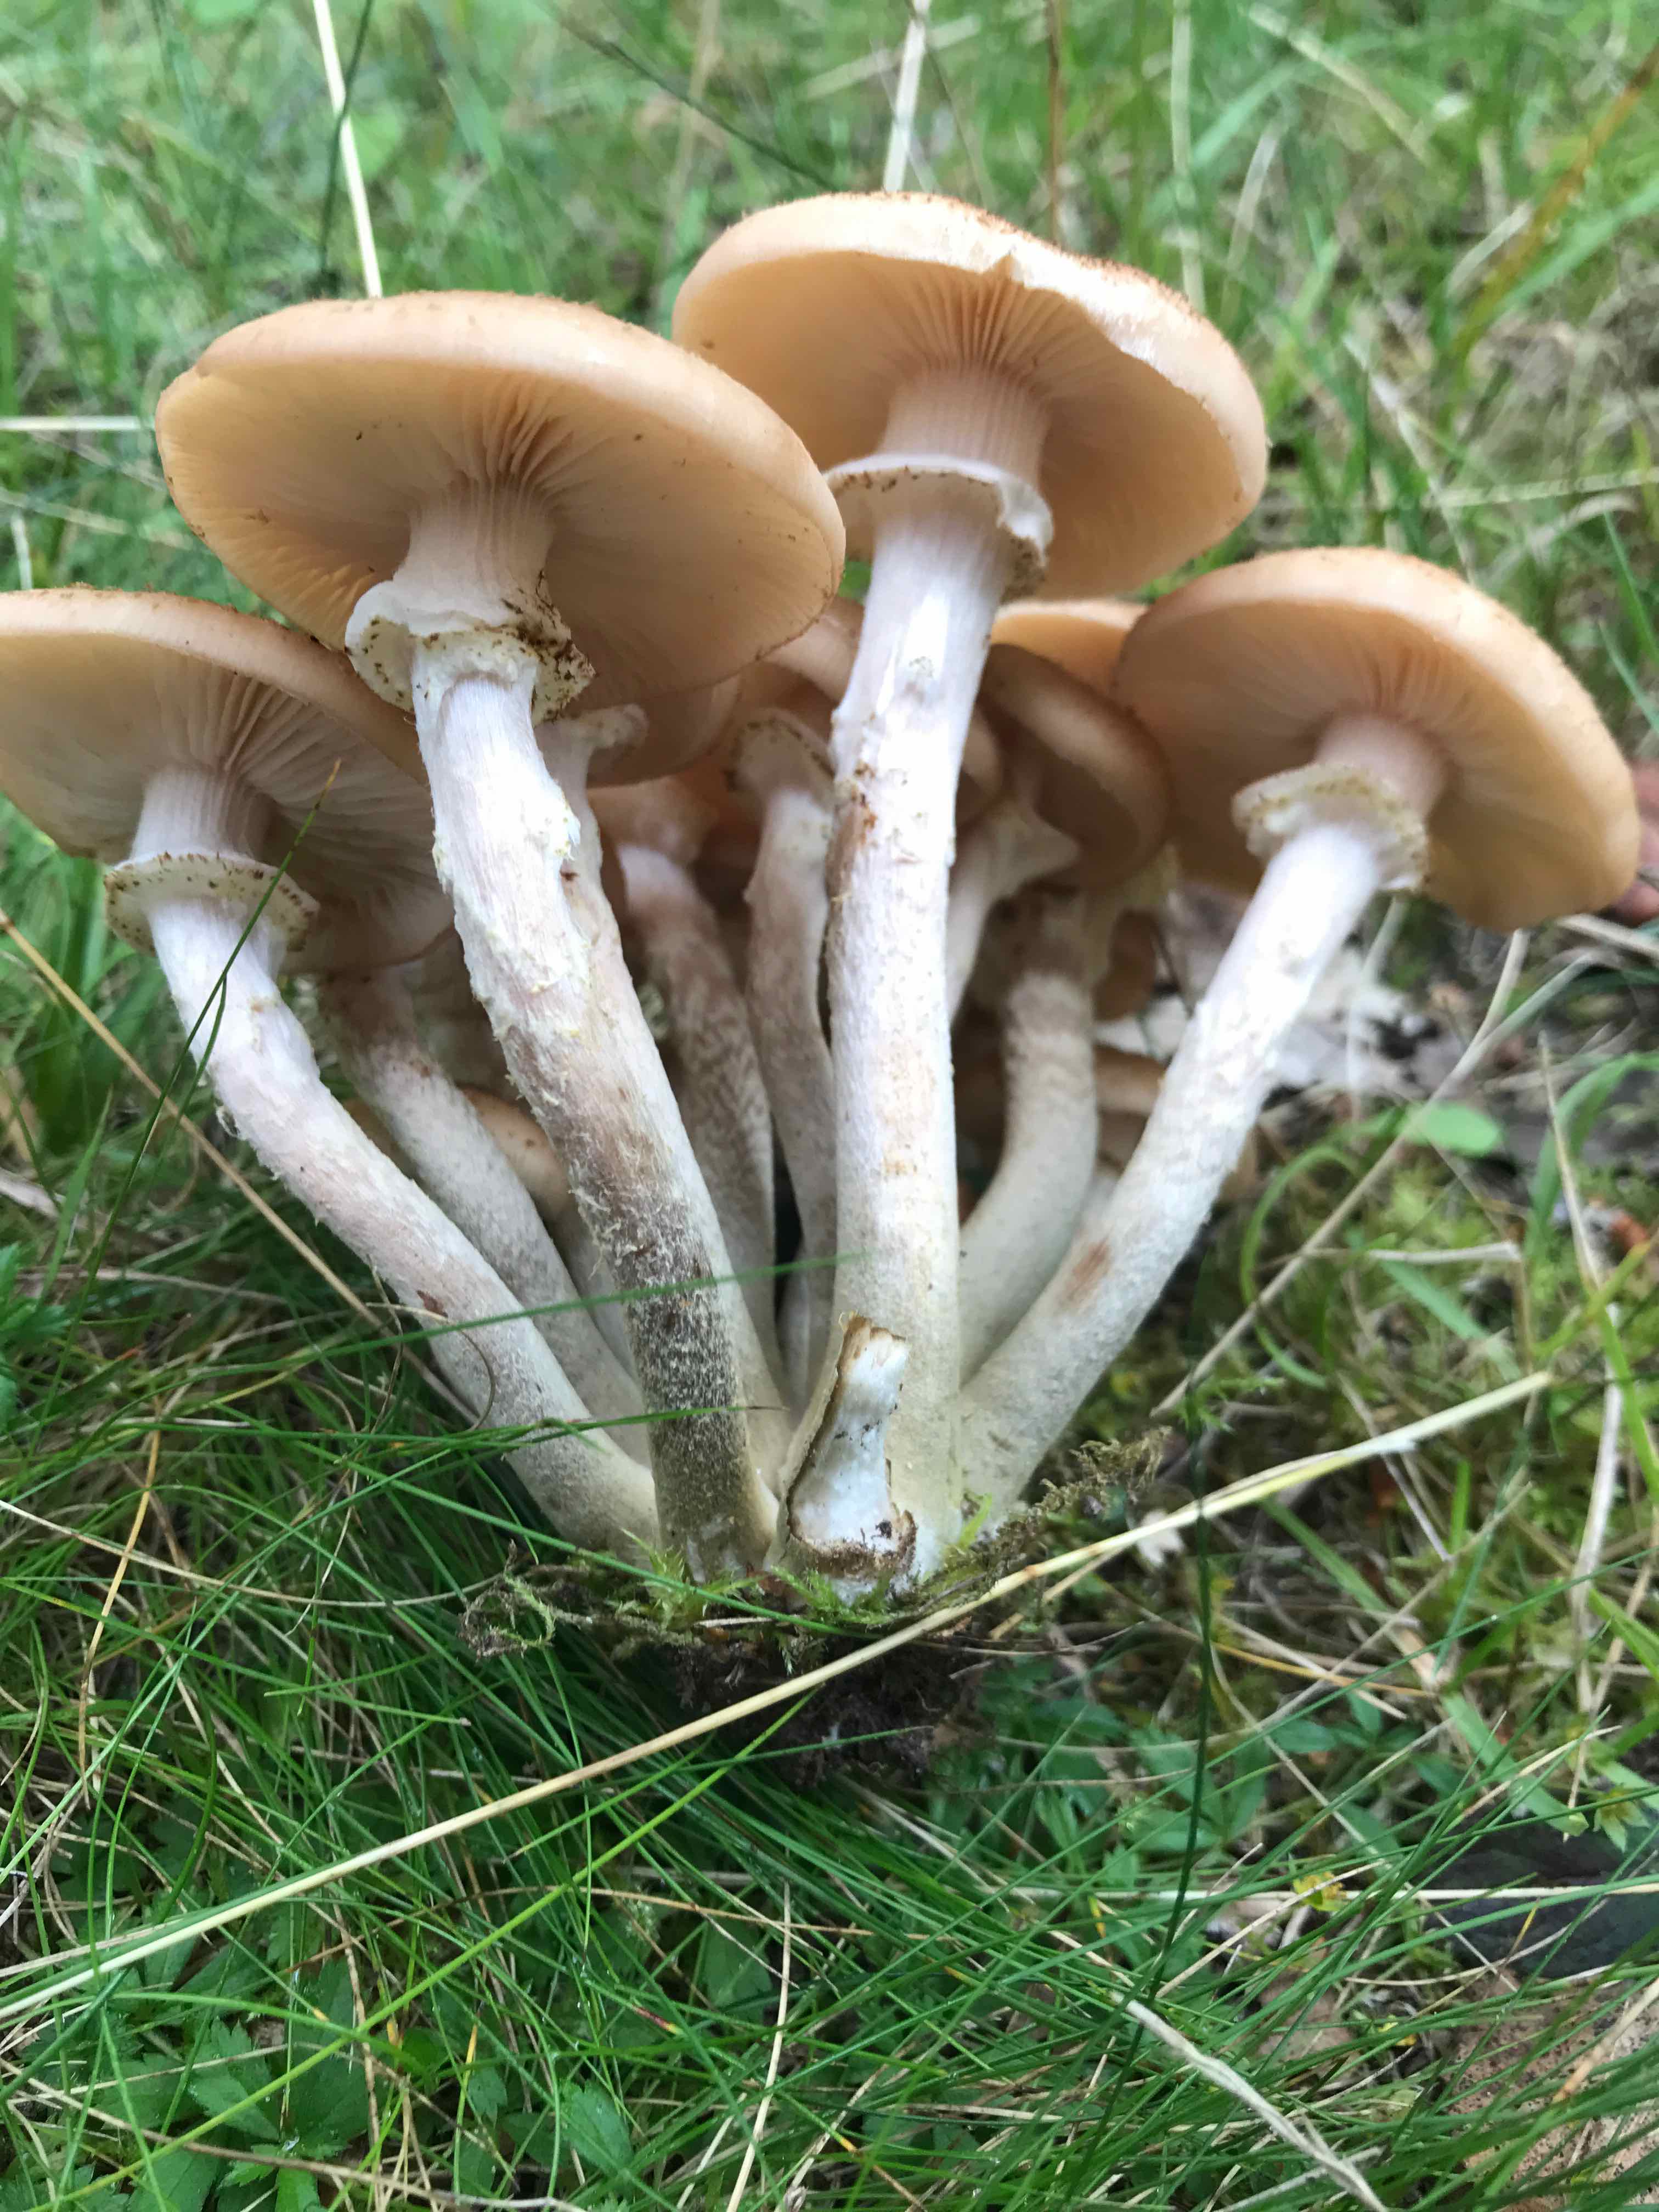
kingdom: Fungi
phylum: Basidiomycota
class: Agaricomycetes
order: Agaricales
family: Physalacriaceae
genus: Armillaria
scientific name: Armillaria ostoyae
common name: mørk honningsvamp
